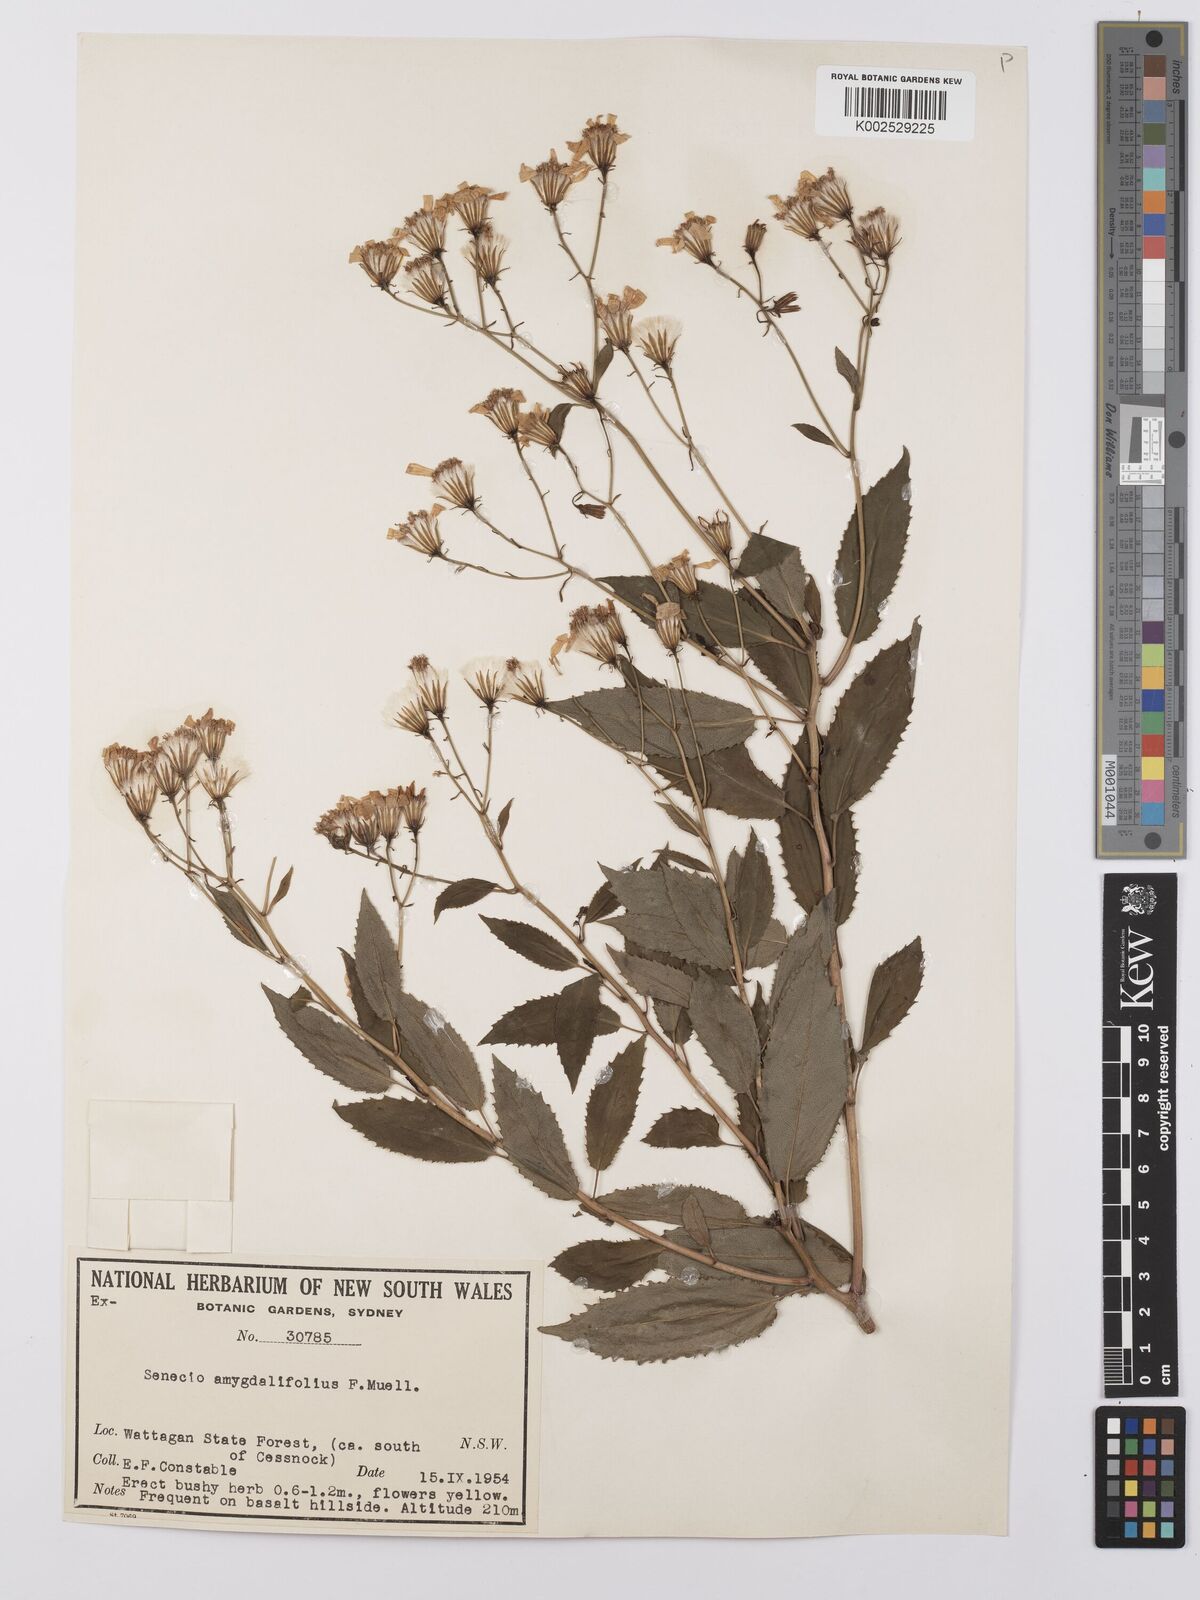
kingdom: Plantae
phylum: Tracheophyta
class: Magnoliopsida
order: Asterales
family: Asteraceae
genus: Lordhowea
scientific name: Lordhowea amygdalifolia
